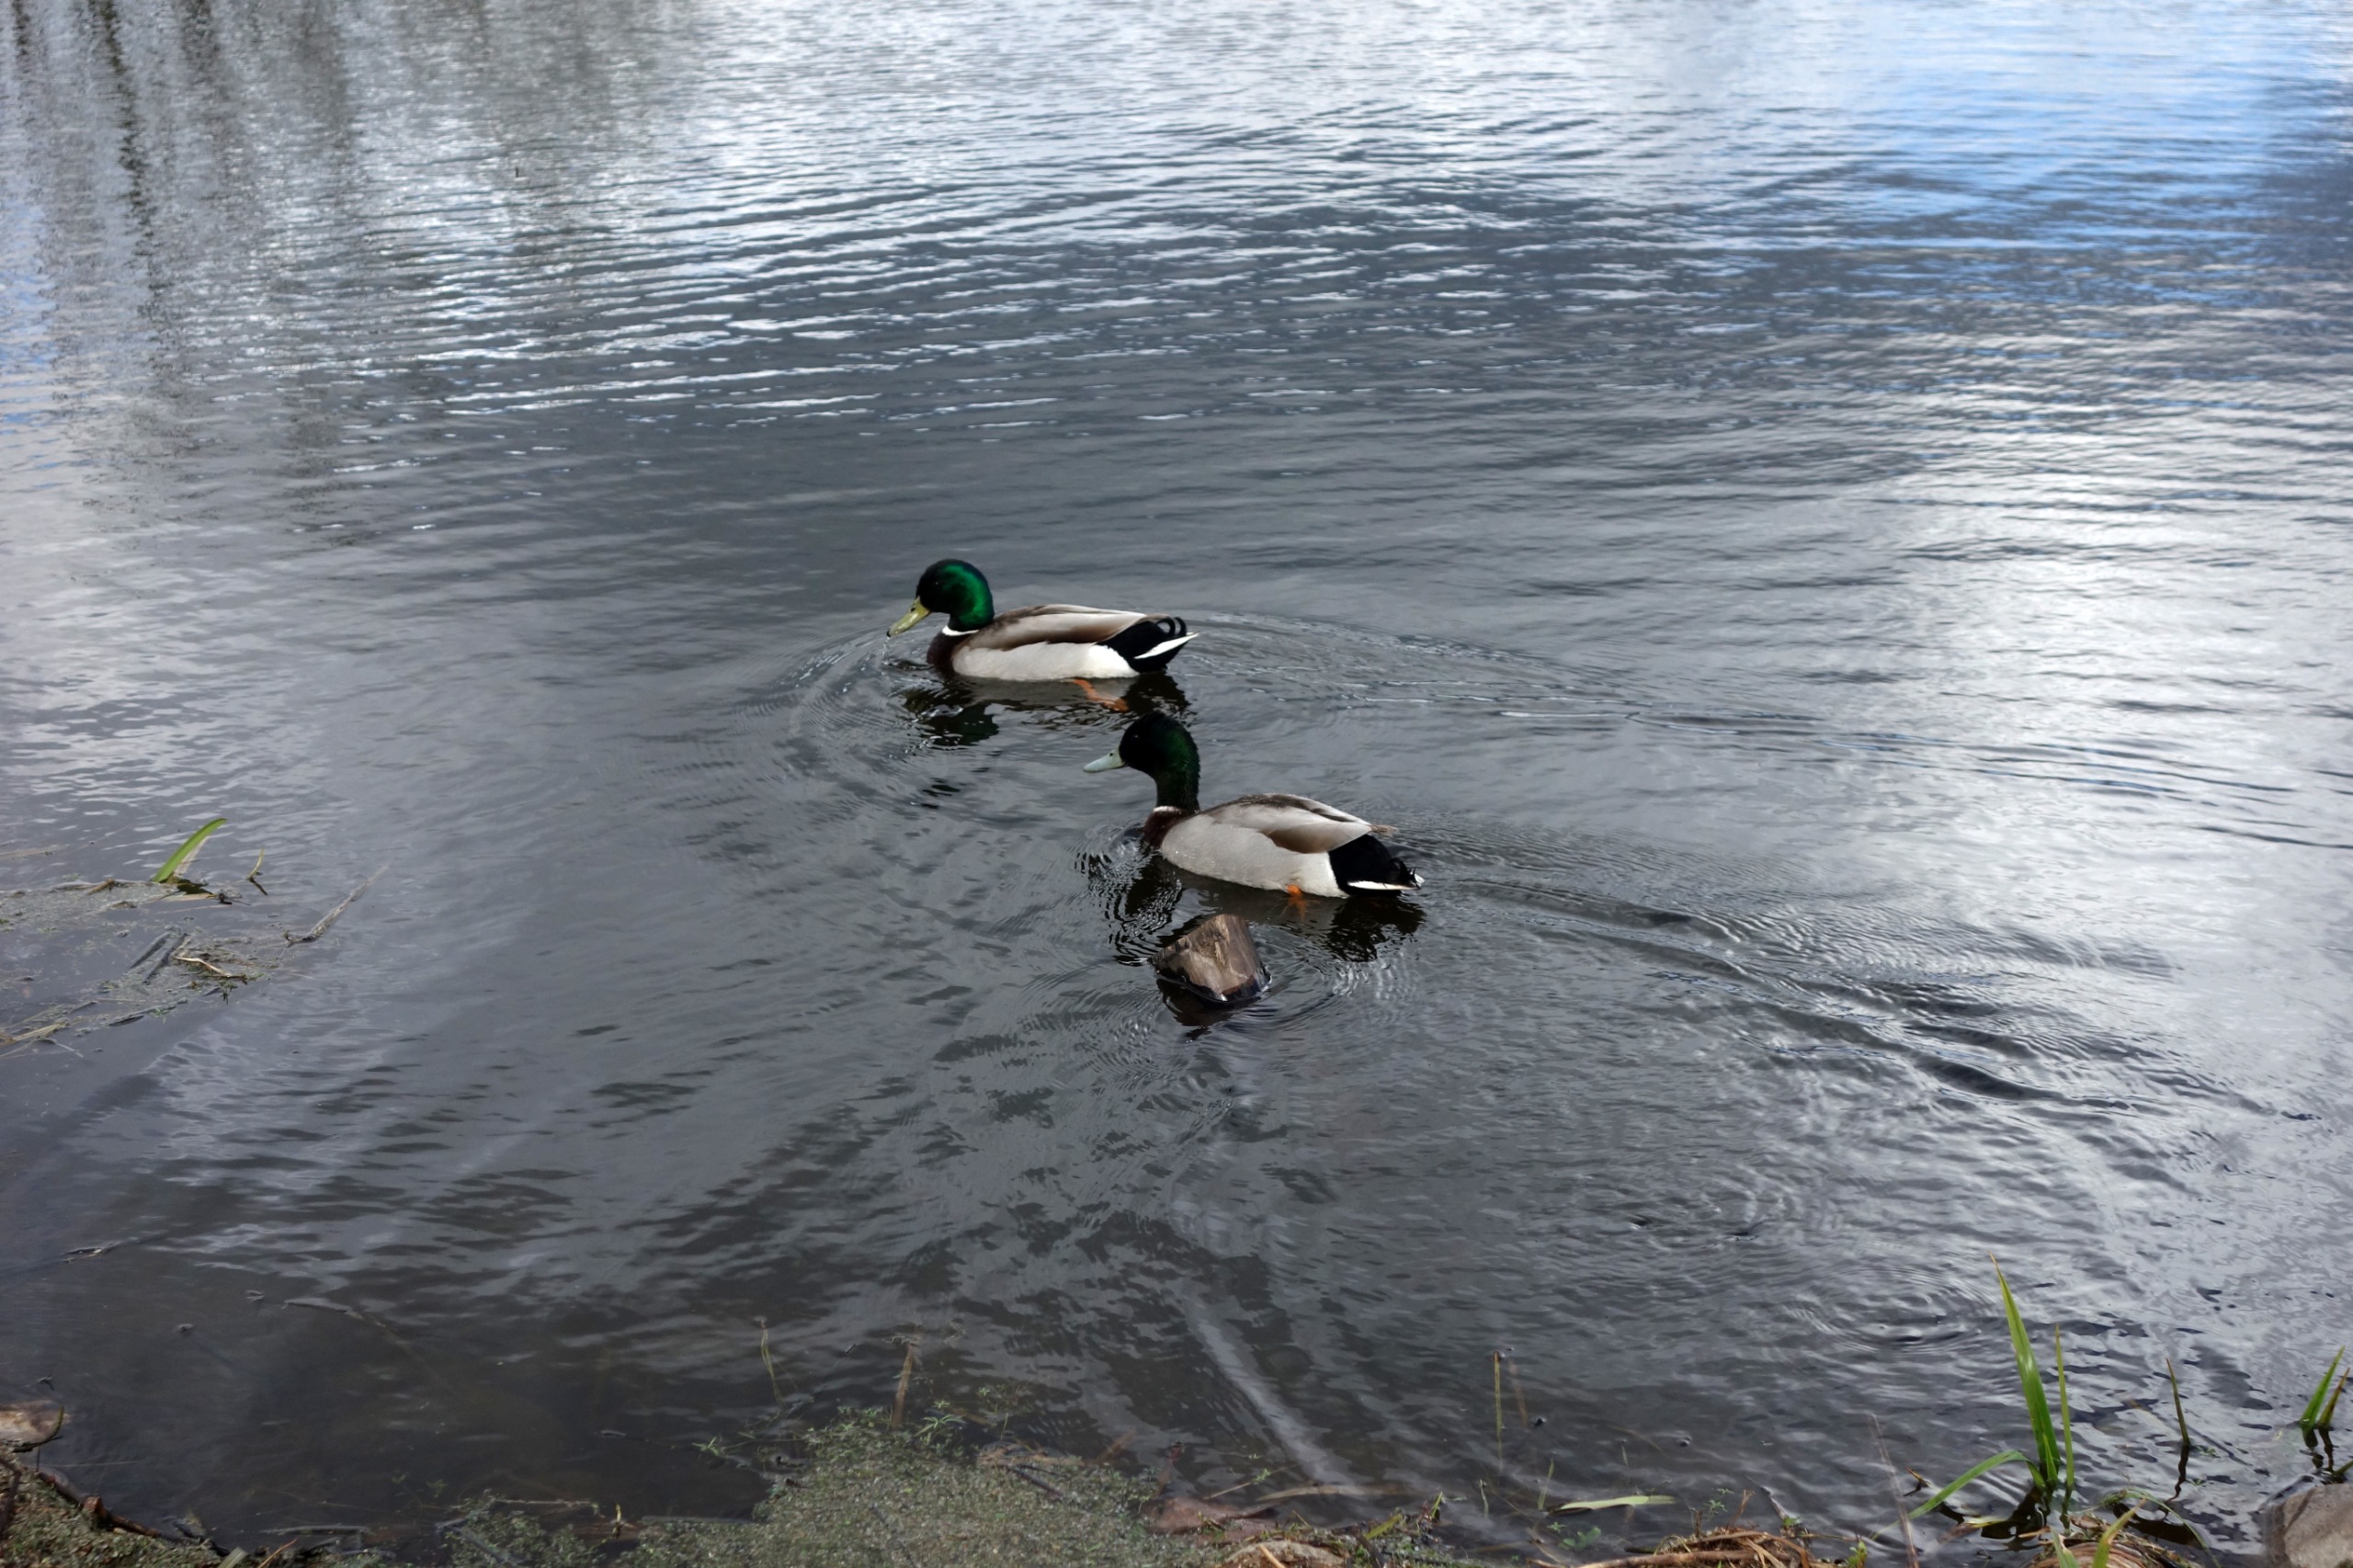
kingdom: Animalia
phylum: Chordata
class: Aves
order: Anseriformes
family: Anatidae
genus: Anas
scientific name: Anas platyrhynchos
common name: Gråand
